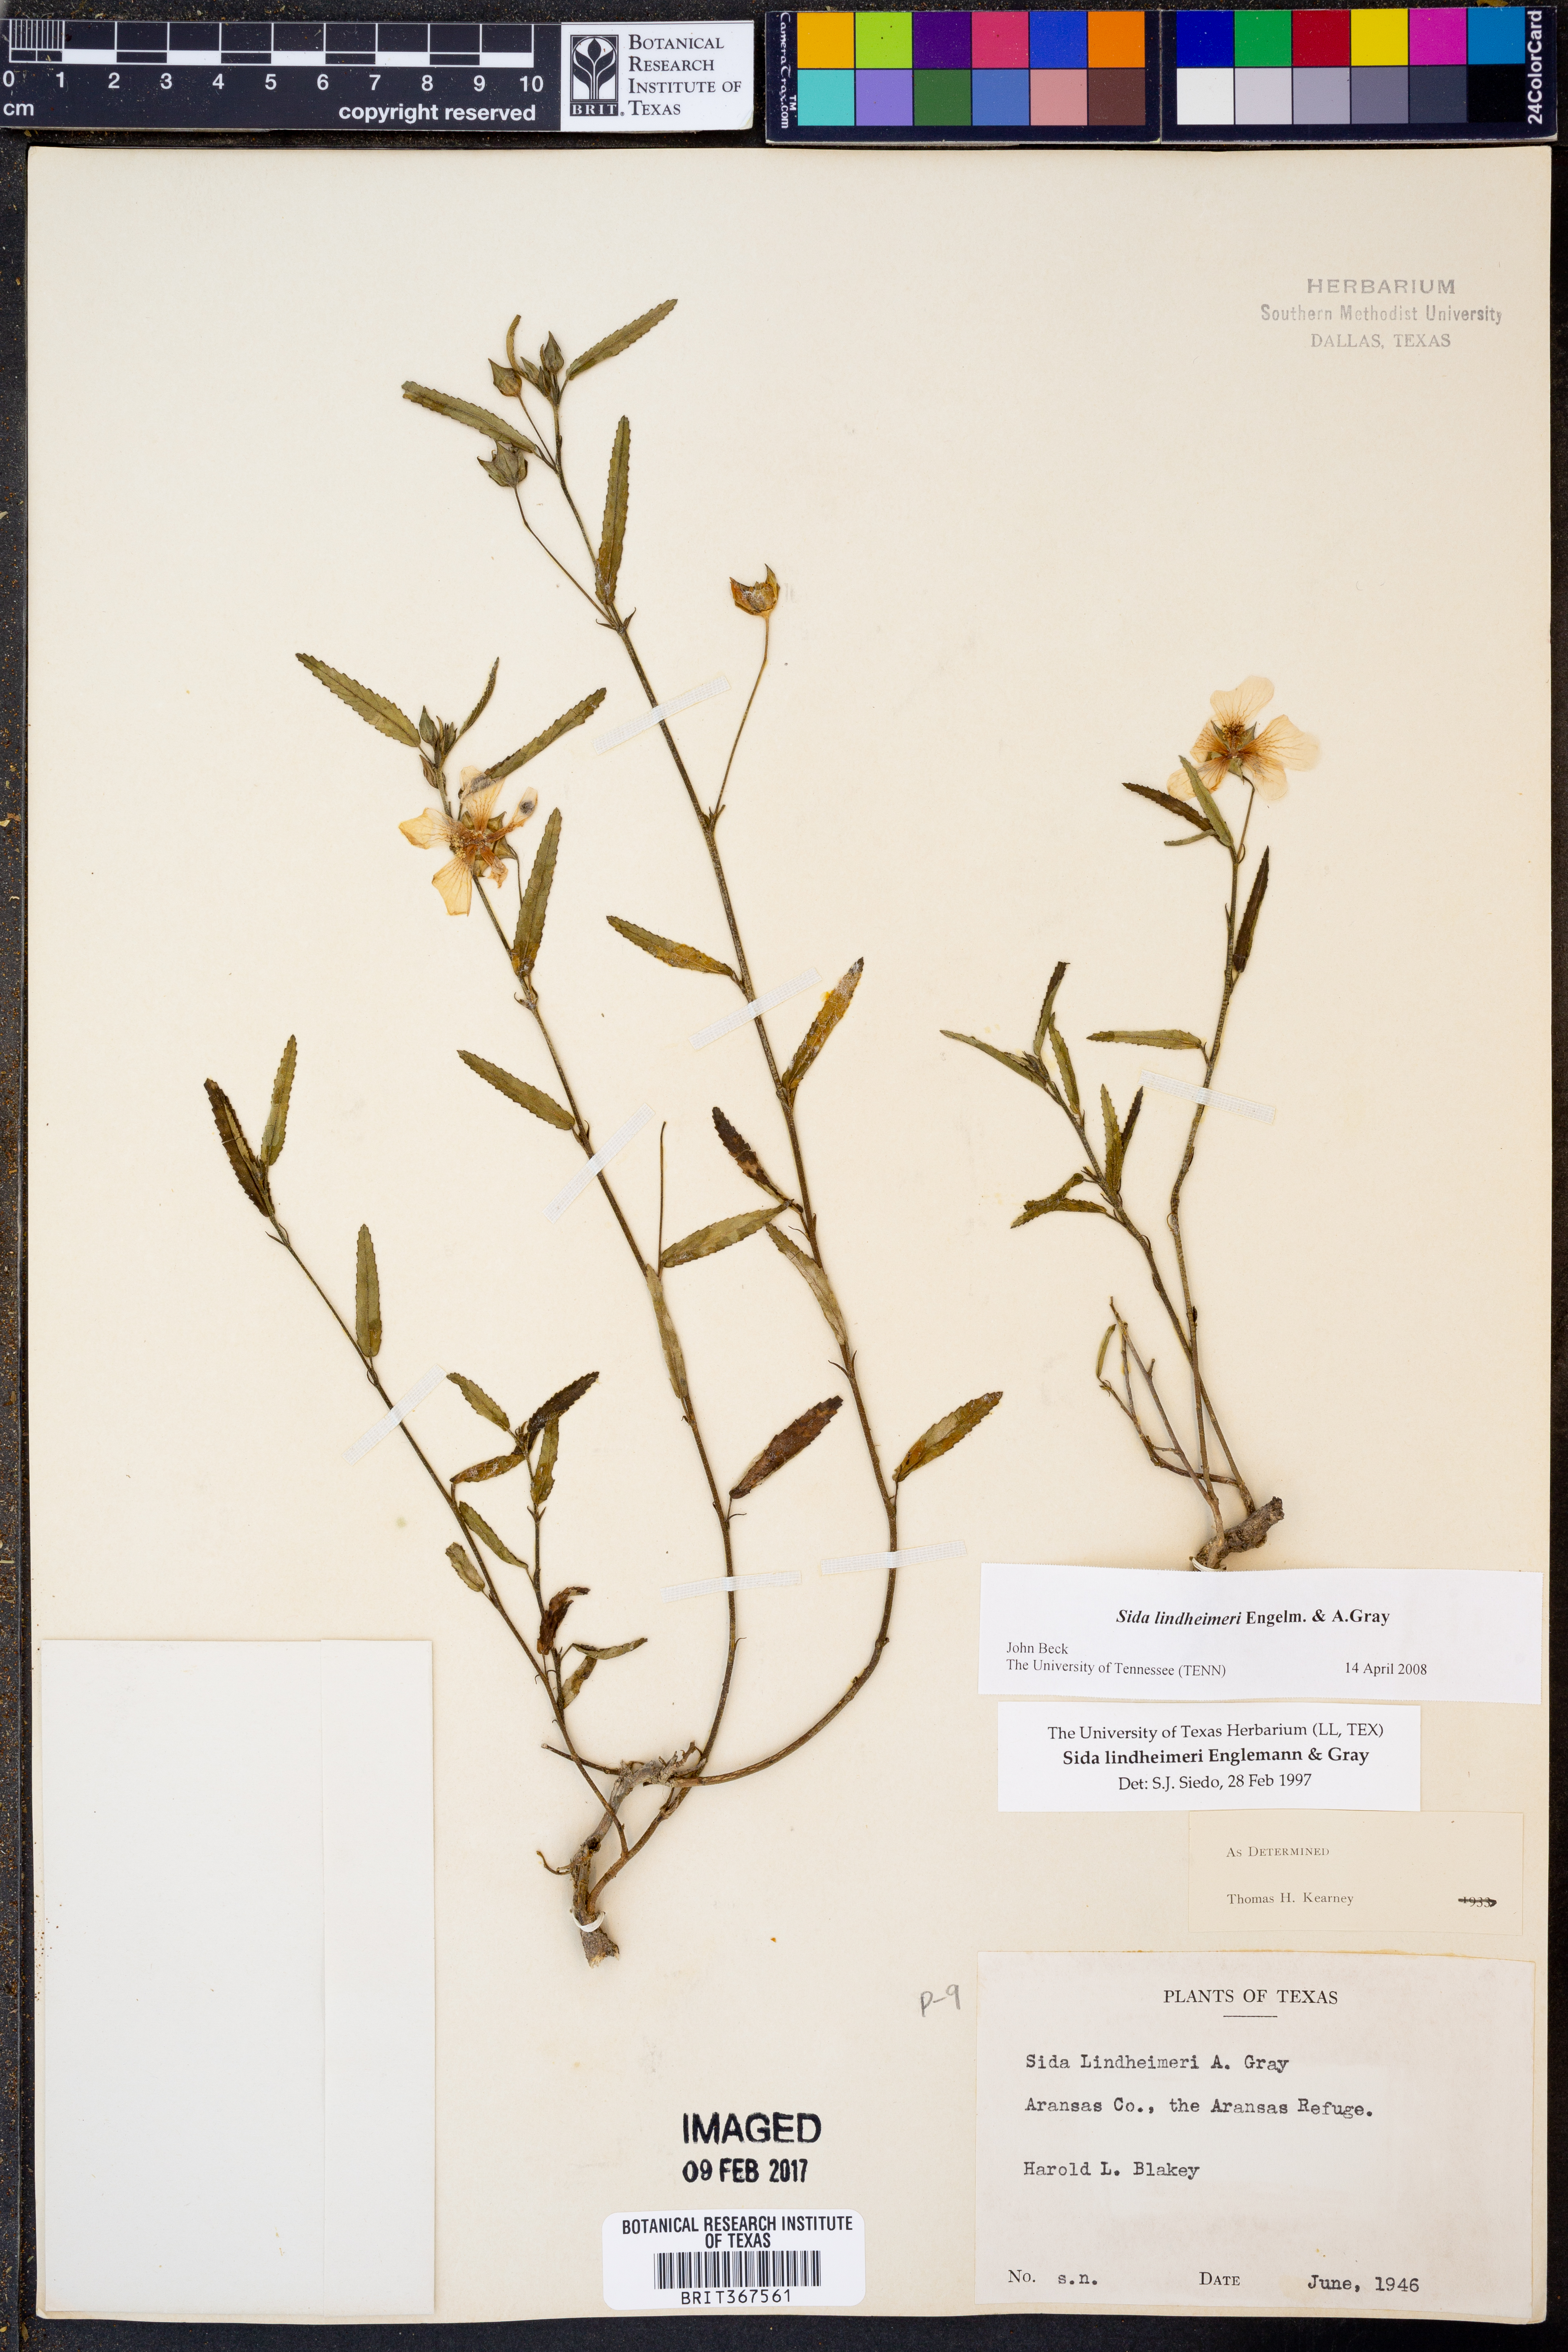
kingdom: Plantae
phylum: Tracheophyta
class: Magnoliopsida
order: Malvales
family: Malvaceae
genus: Sida
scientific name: Sida lindheimeri
